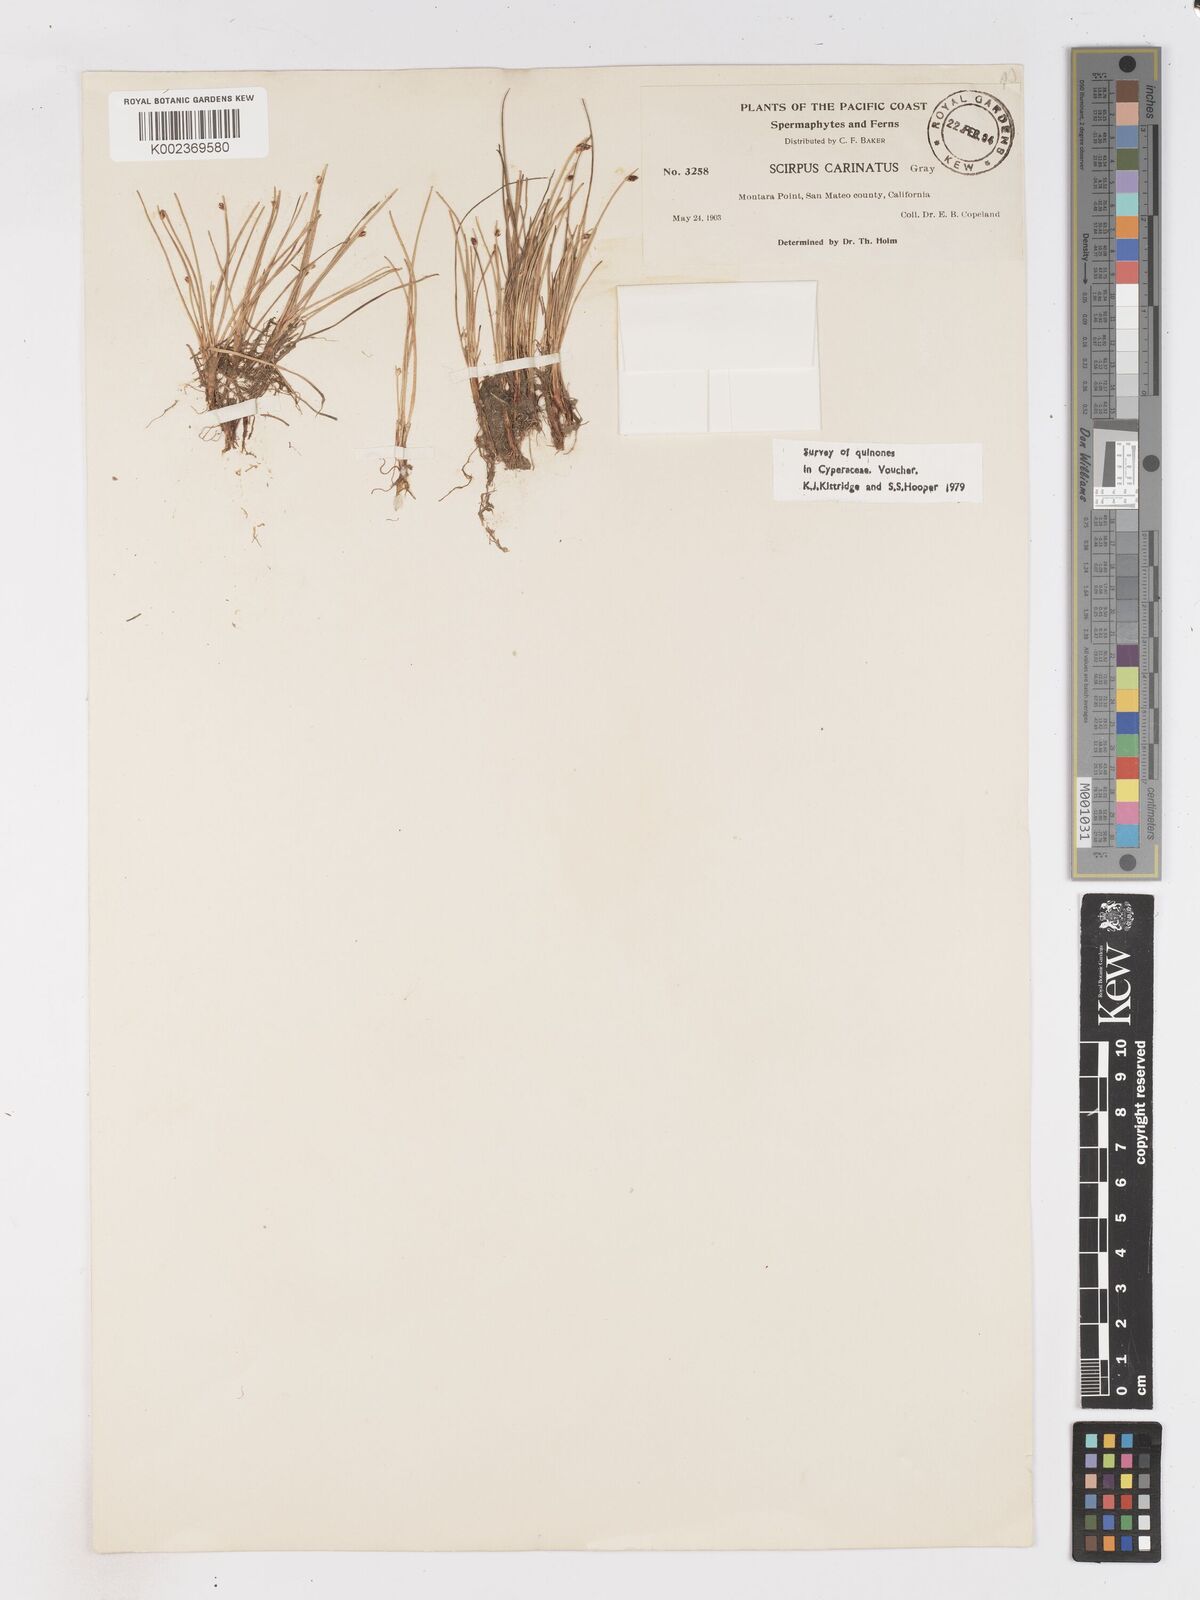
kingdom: Plantae
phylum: Tracheophyta
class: Liliopsida
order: Poales
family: Cyperaceae
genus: Isolepis
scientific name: Isolepis cernua
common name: Slender club-rush
